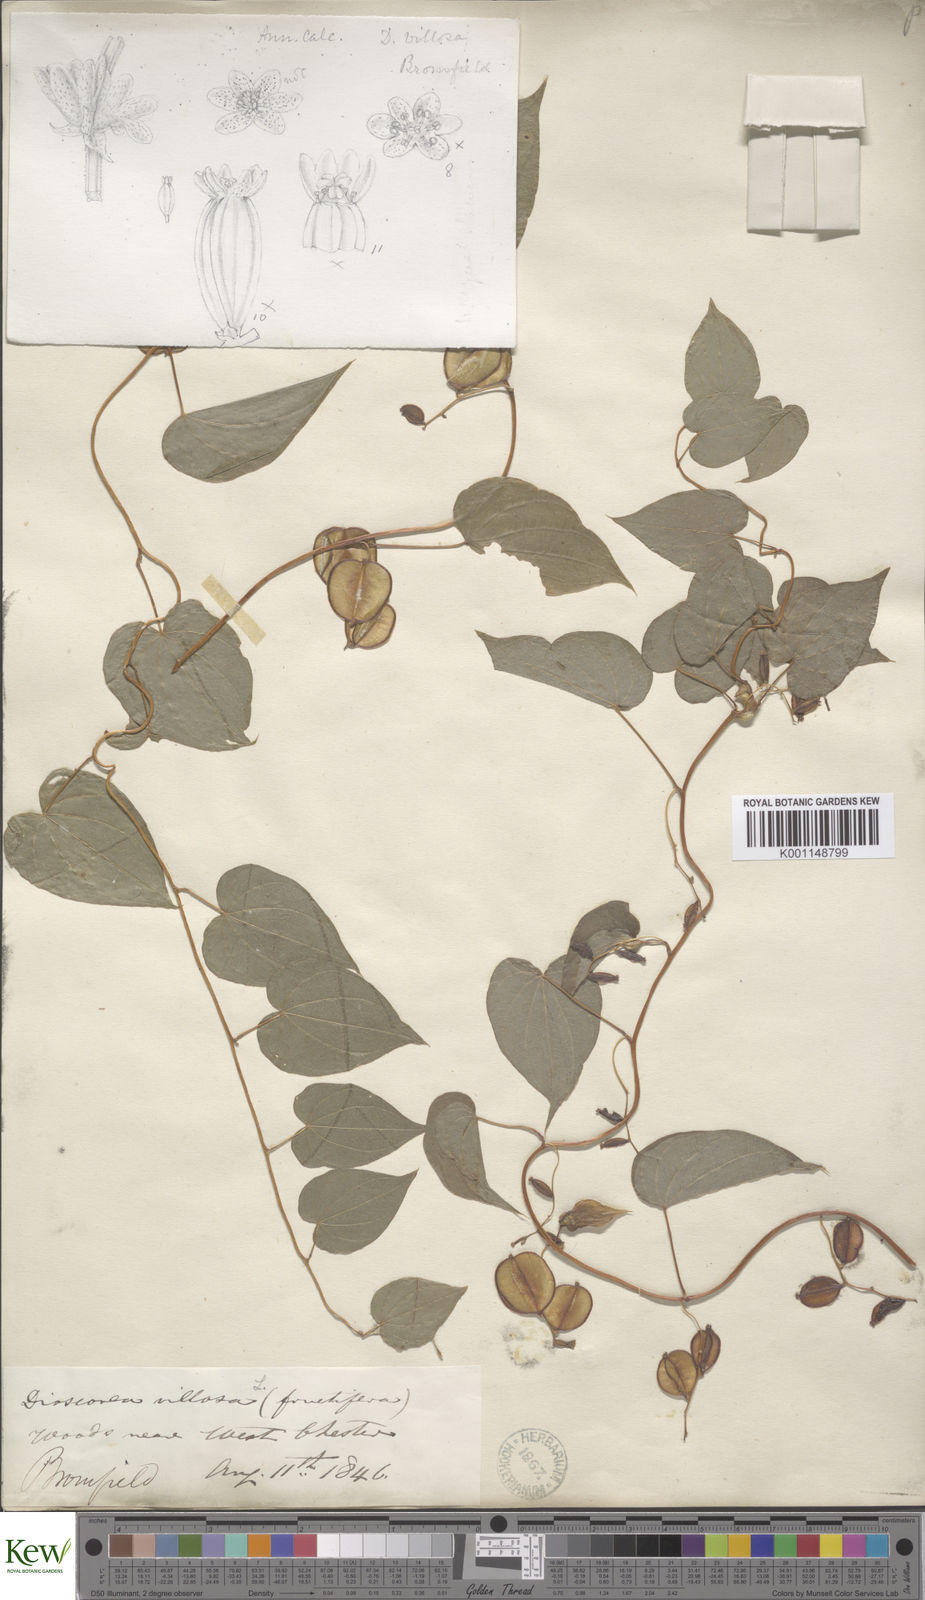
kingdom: Plantae
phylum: Tracheophyta
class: Liliopsida
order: Dioscoreales
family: Dioscoreaceae
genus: Dioscorea
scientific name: Dioscorea villosa
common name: Wild yam
